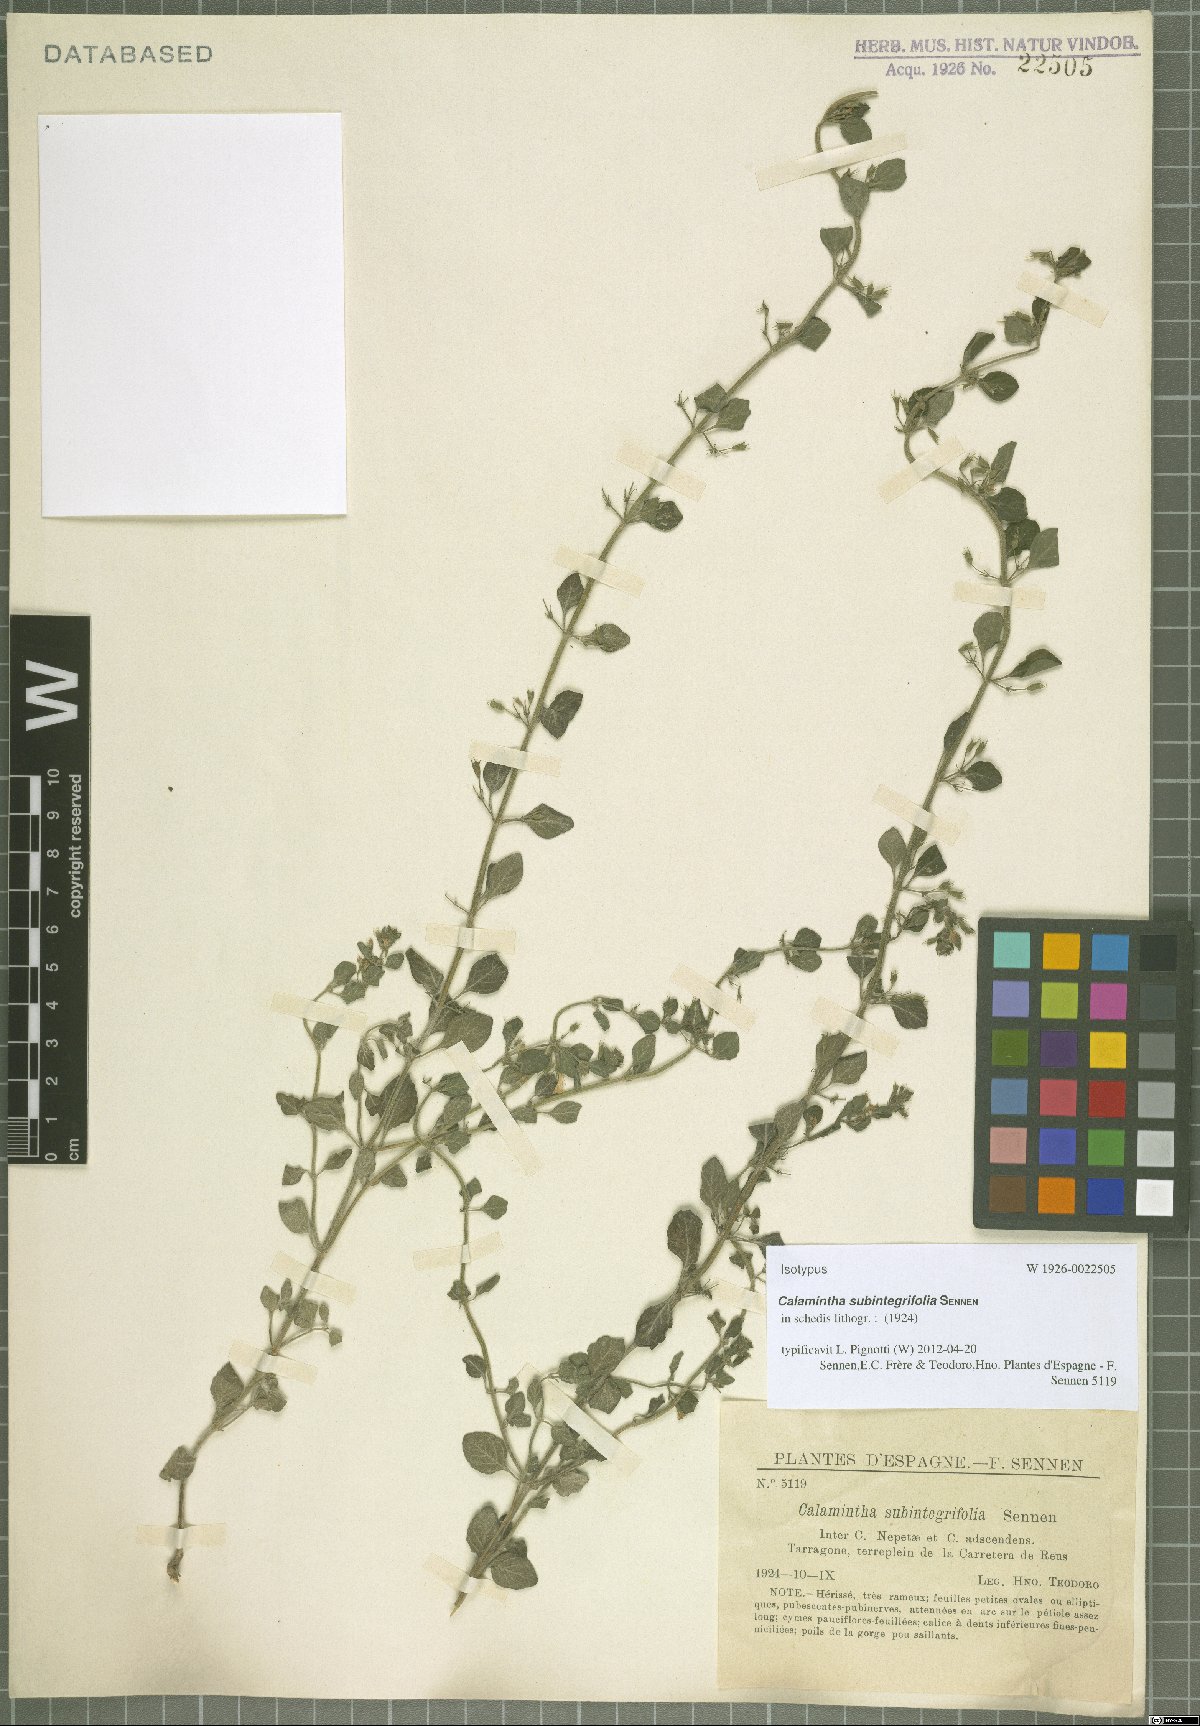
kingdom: Plantae
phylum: Tracheophyta
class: Magnoliopsida
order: Lamiales
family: Lamiaceae
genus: Calamintha
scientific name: Calamintha
